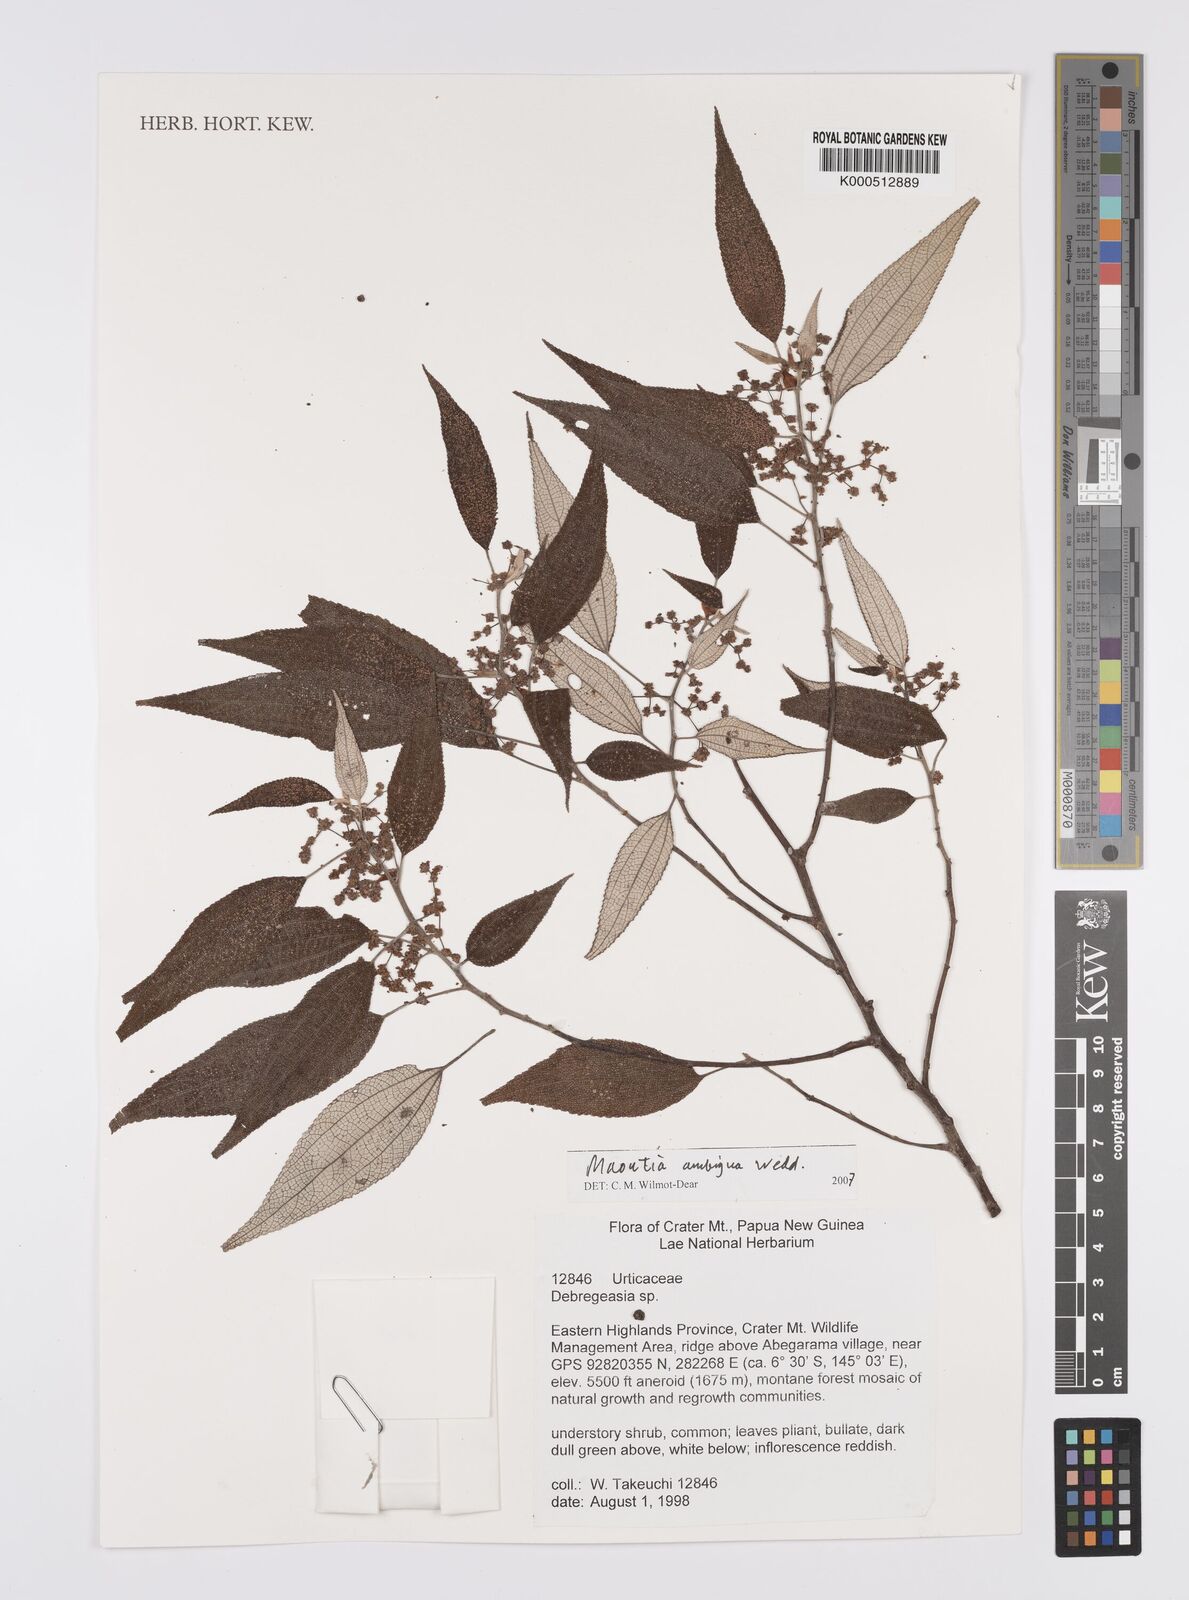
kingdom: Plantae
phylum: Tracheophyta
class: Magnoliopsida
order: Rosales
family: Urticaceae
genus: Maoutia
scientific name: Maoutia ambigua
